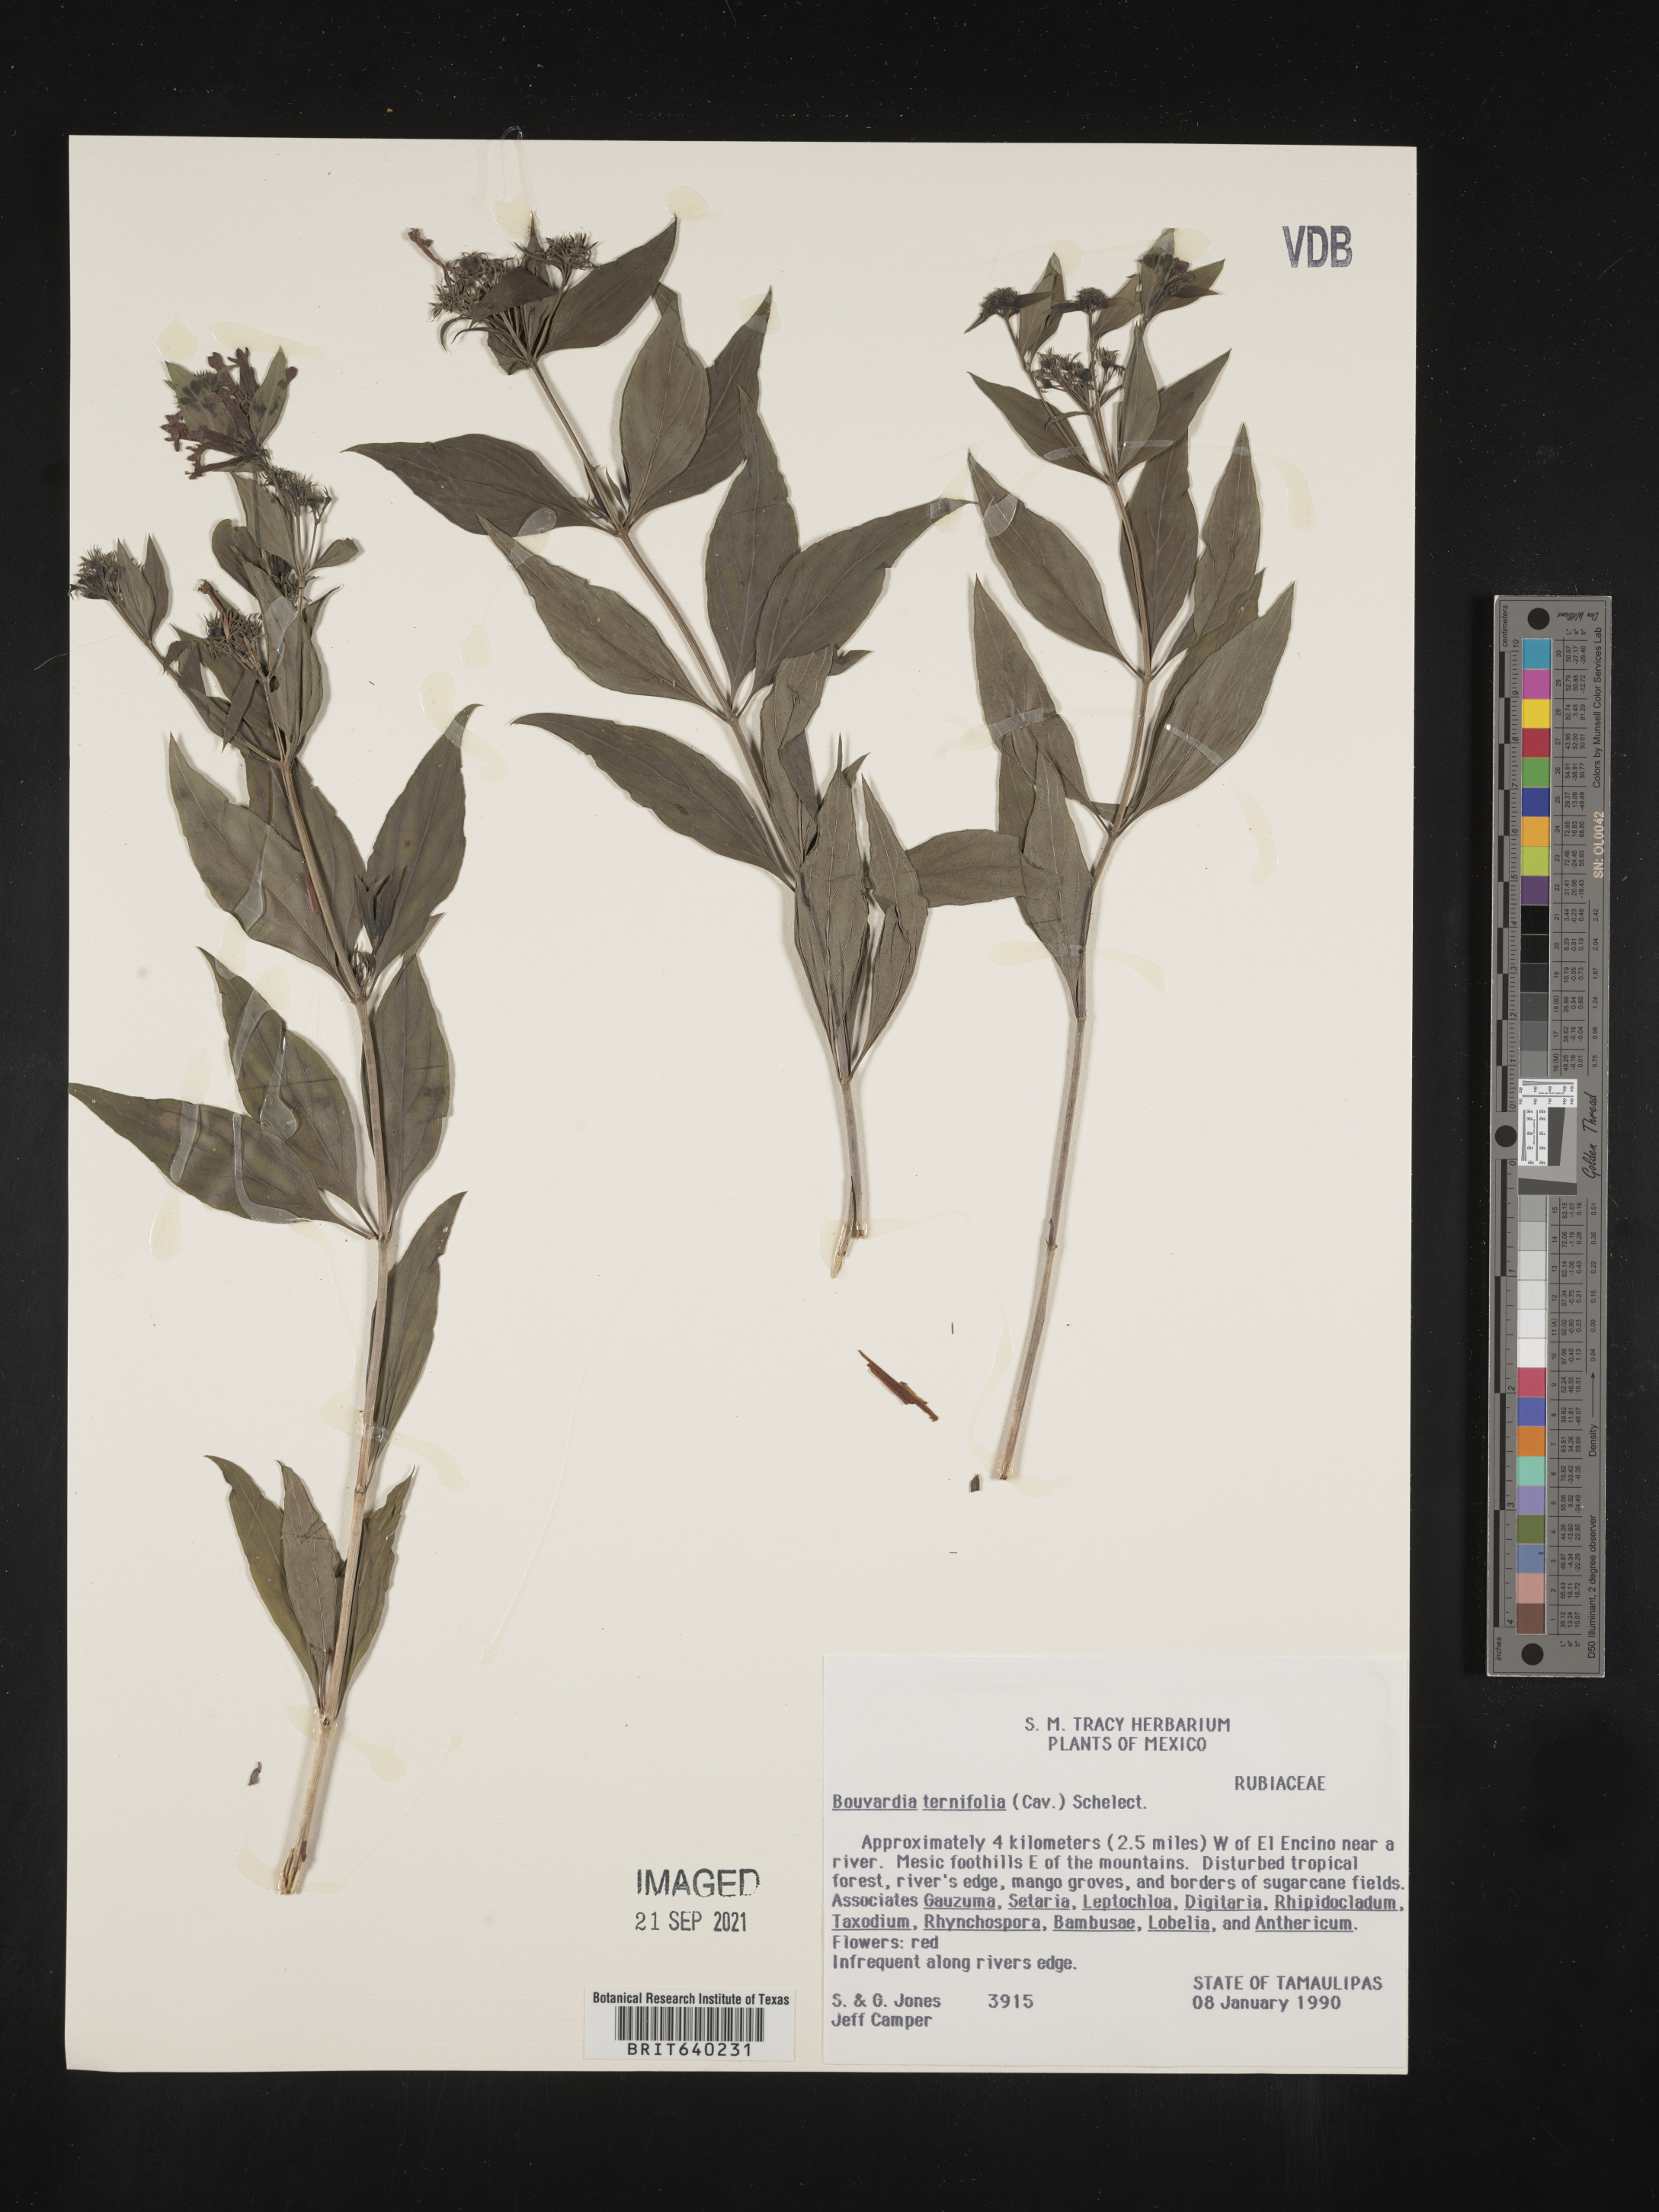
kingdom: Plantae
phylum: Tracheophyta
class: Magnoliopsida
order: Gentianales
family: Rubiaceae
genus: Bouvardia
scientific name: Bouvardia
